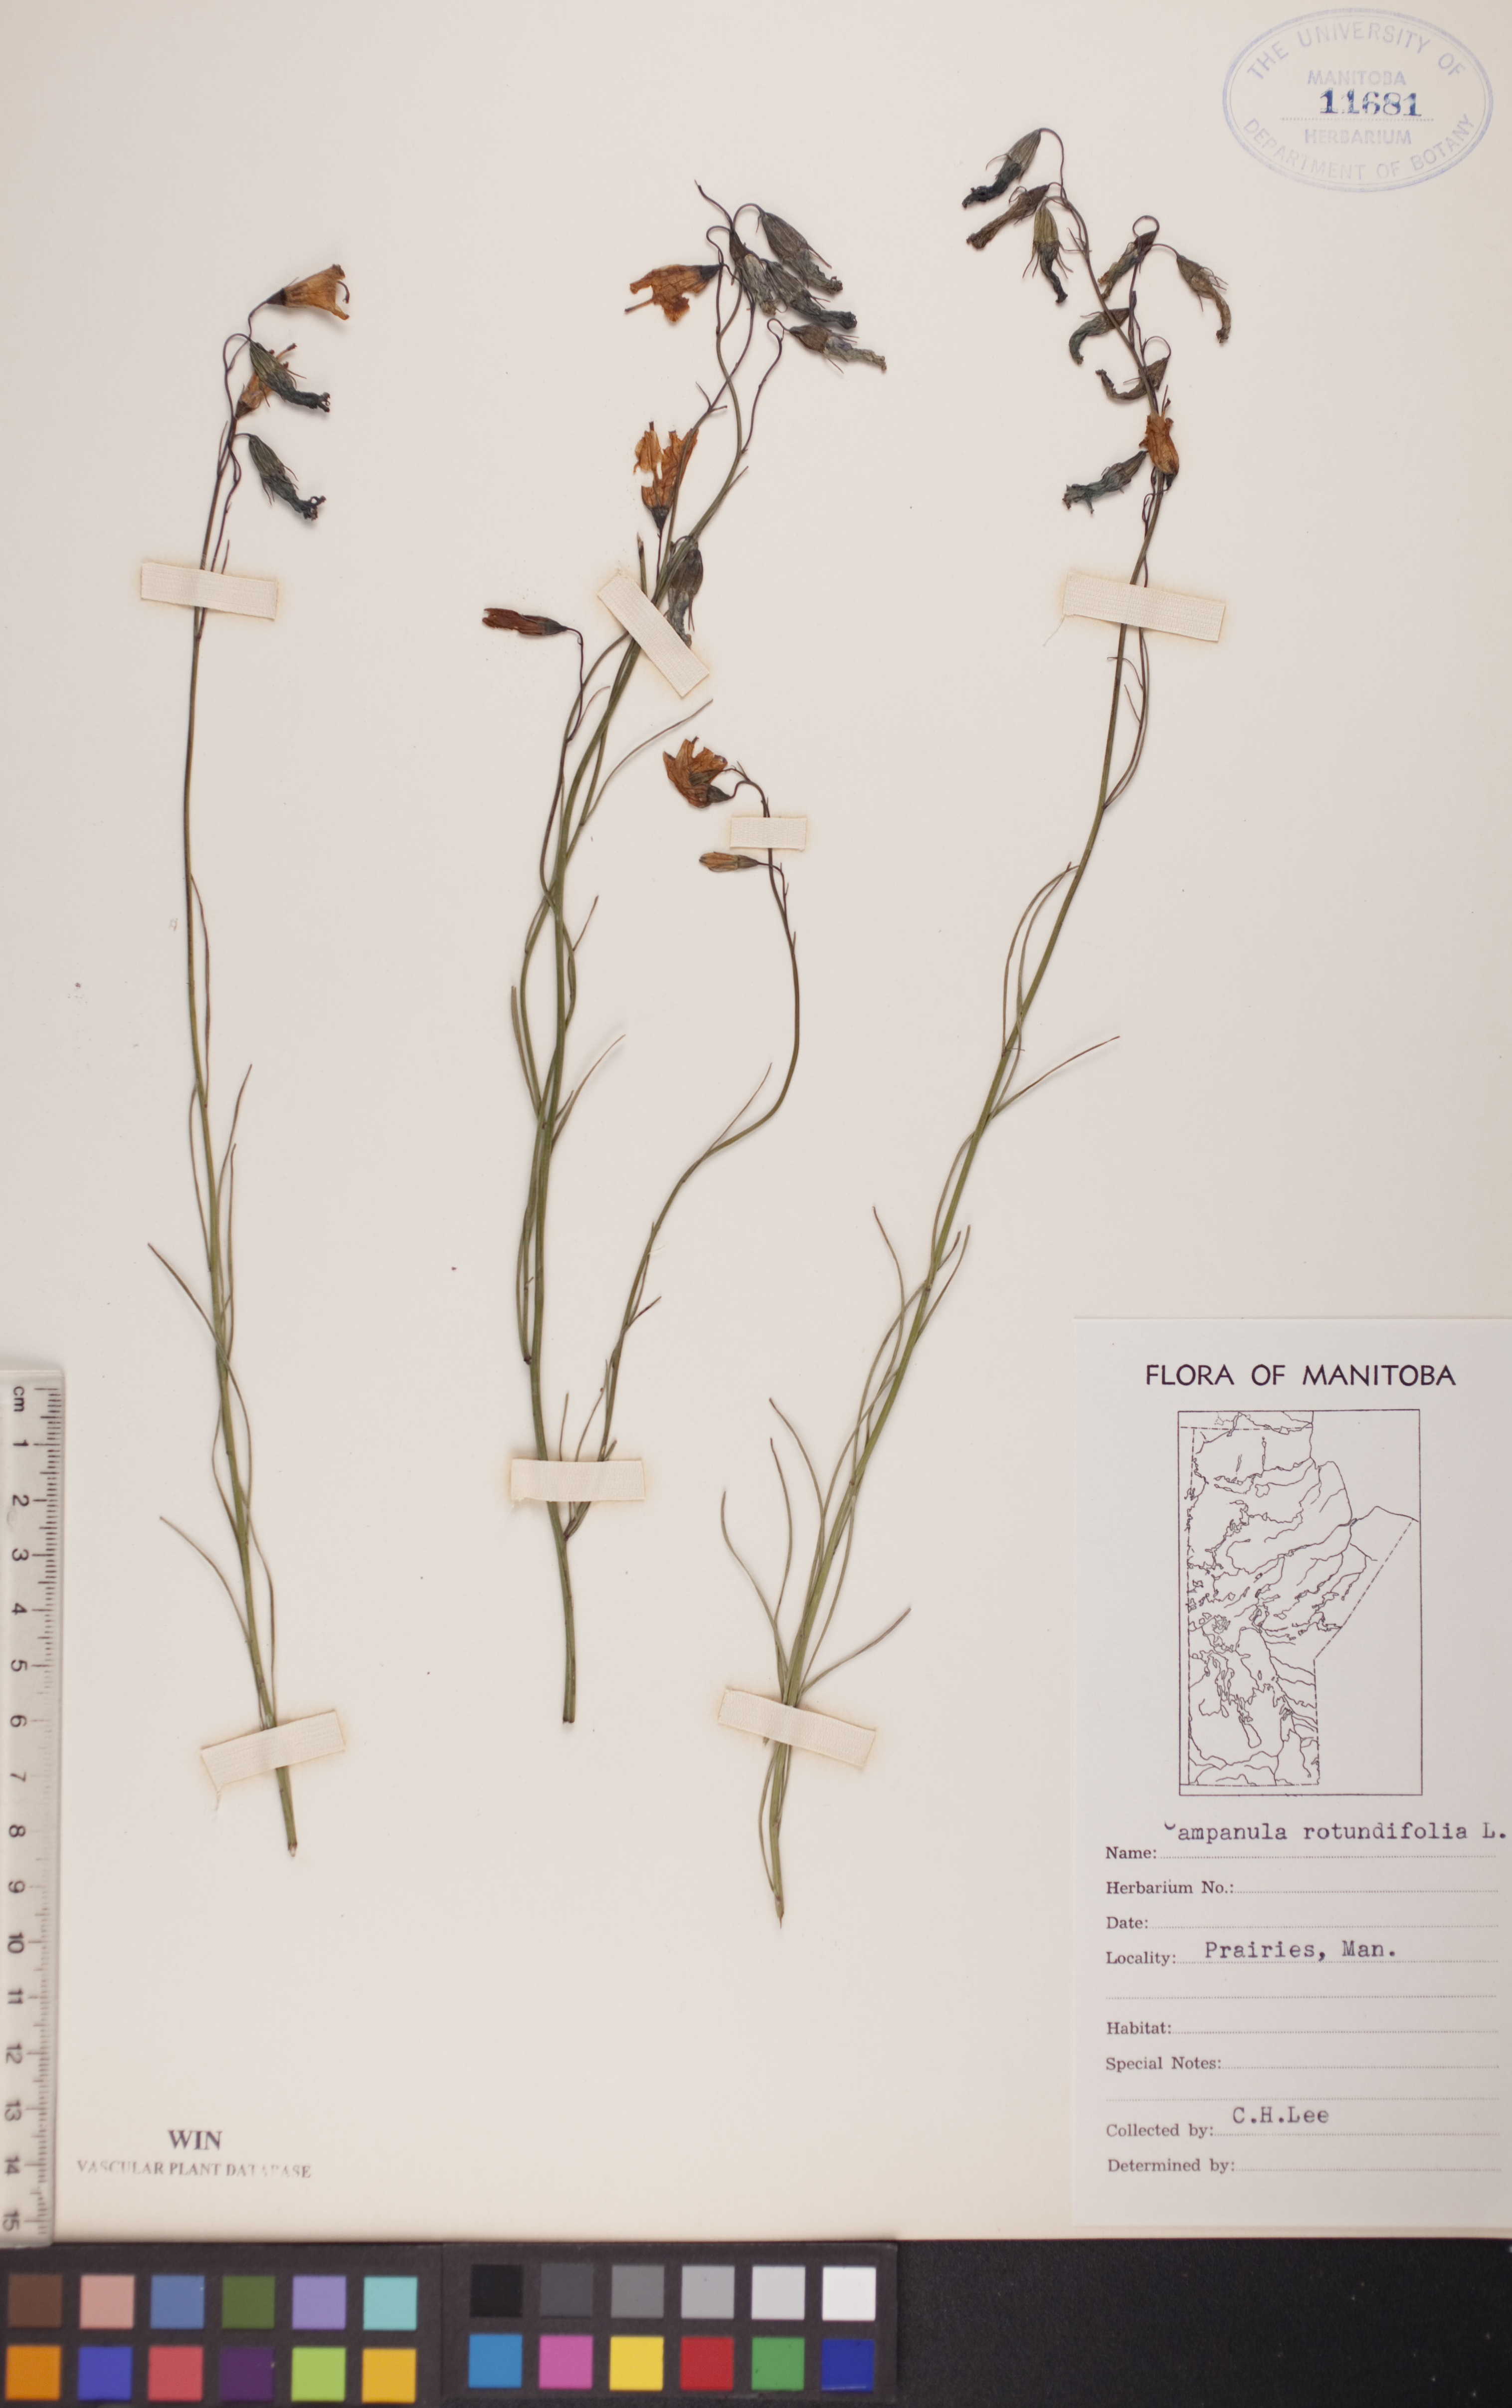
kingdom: Plantae
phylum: Tracheophyta
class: Magnoliopsida
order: Asterales
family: Campanulaceae
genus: Campanula
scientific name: Campanula rotundifolia
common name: Harebell
